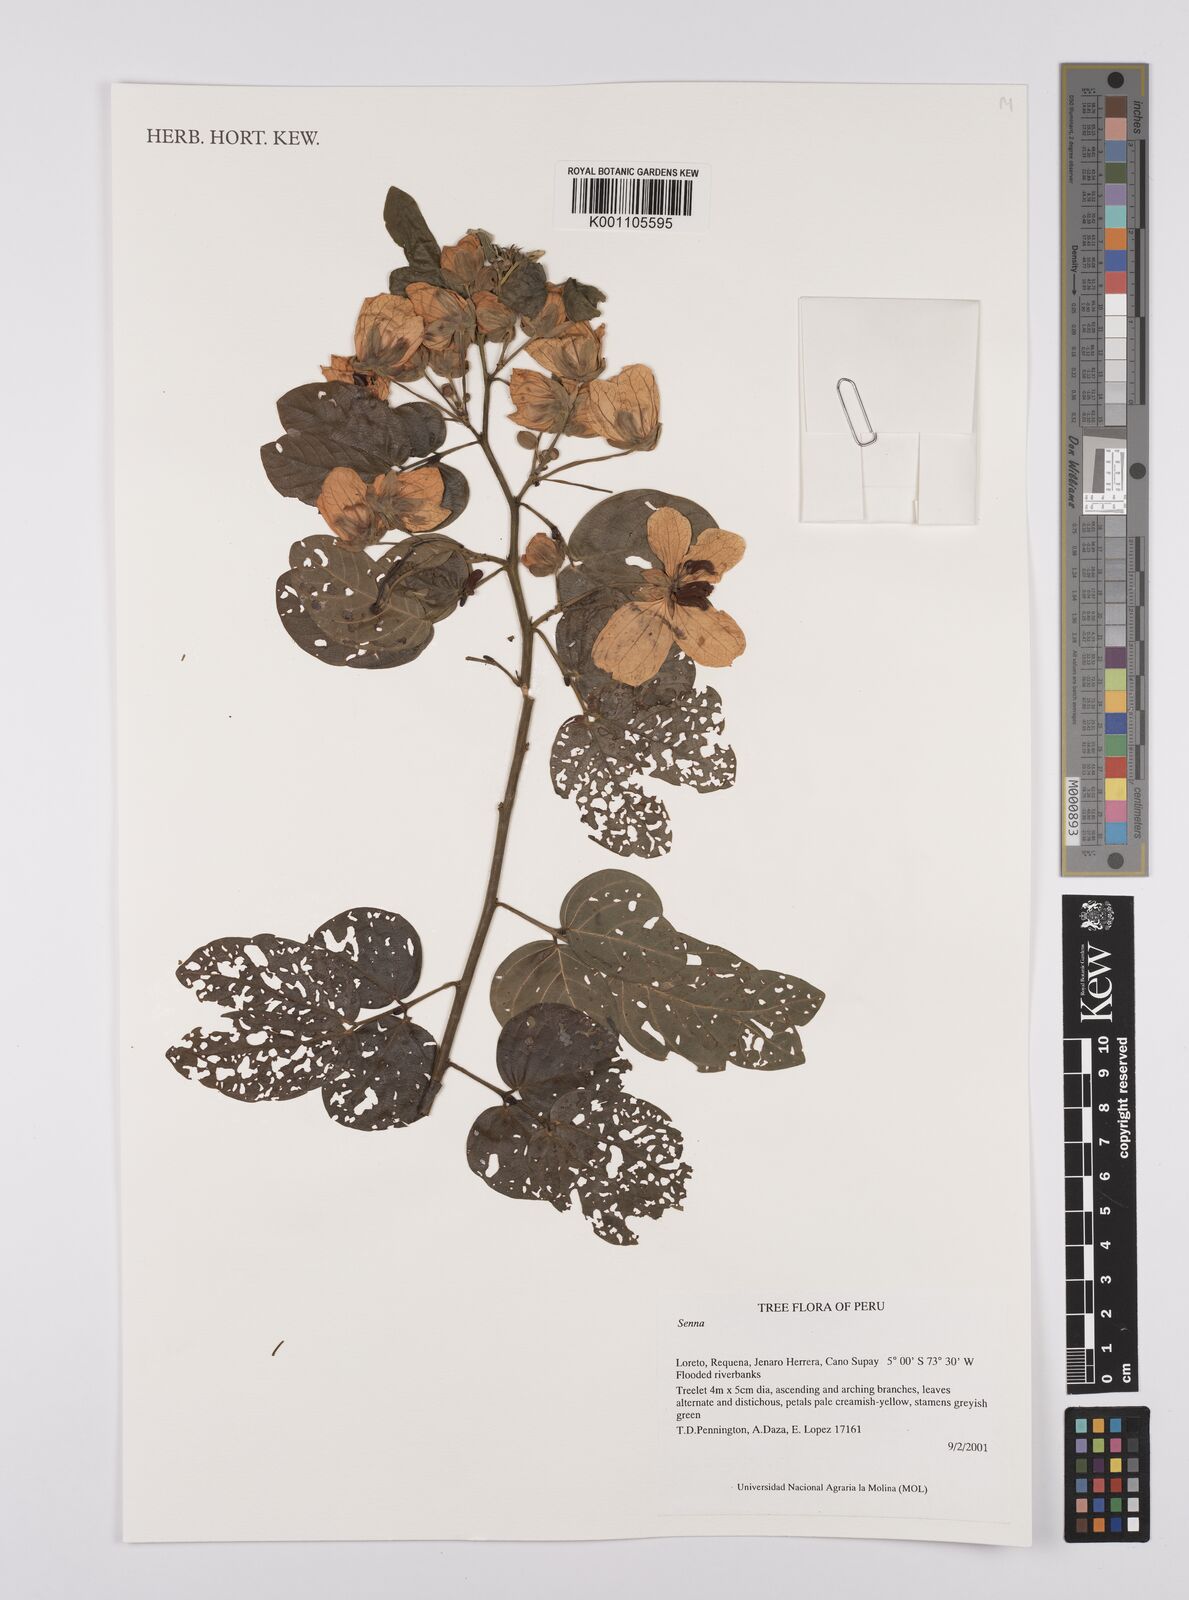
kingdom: Plantae
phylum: Tracheophyta
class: Magnoliopsida
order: Fabales
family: Fabaceae
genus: Senna
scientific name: Senna
